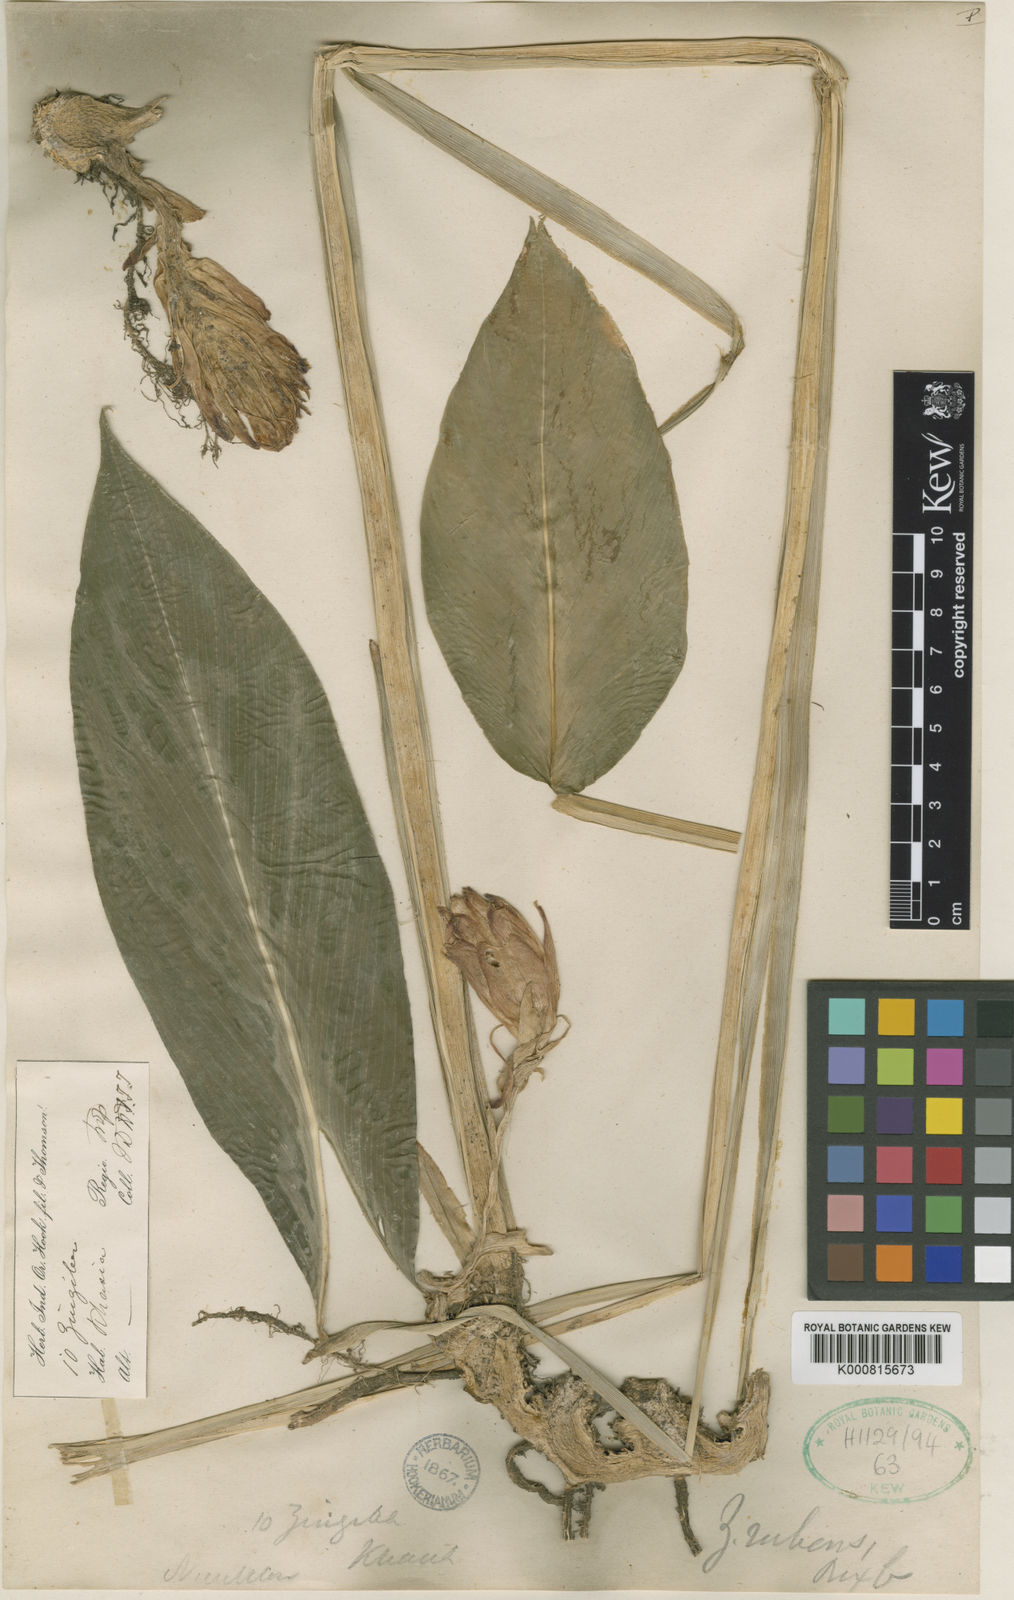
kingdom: Plantae
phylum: Tracheophyta
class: Liliopsida
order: Zingiberales
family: Zingiberaceae
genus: Zingiber
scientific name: Zingiber rubens
